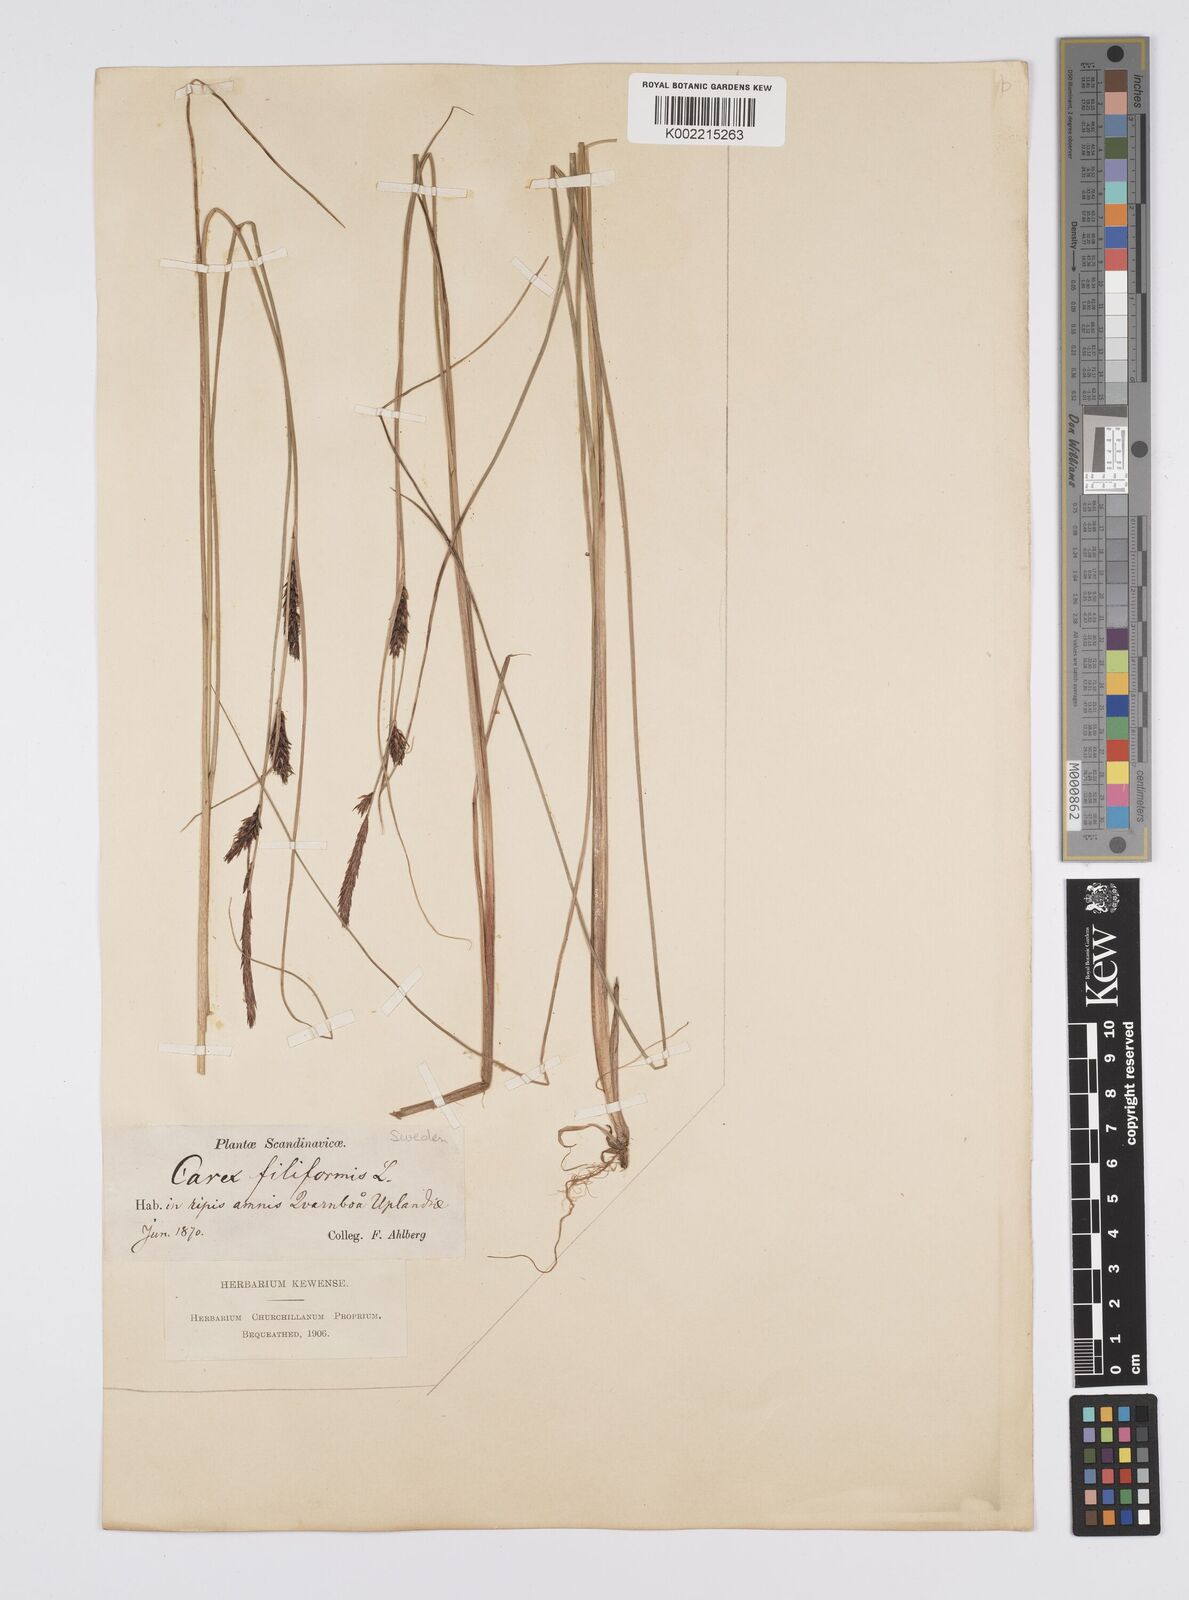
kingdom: Plantae
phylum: Tracheophyta
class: Liliopsida
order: Poales
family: Cyperaceae
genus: Carex
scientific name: Carex lasiocarpa
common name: Slender sedge
